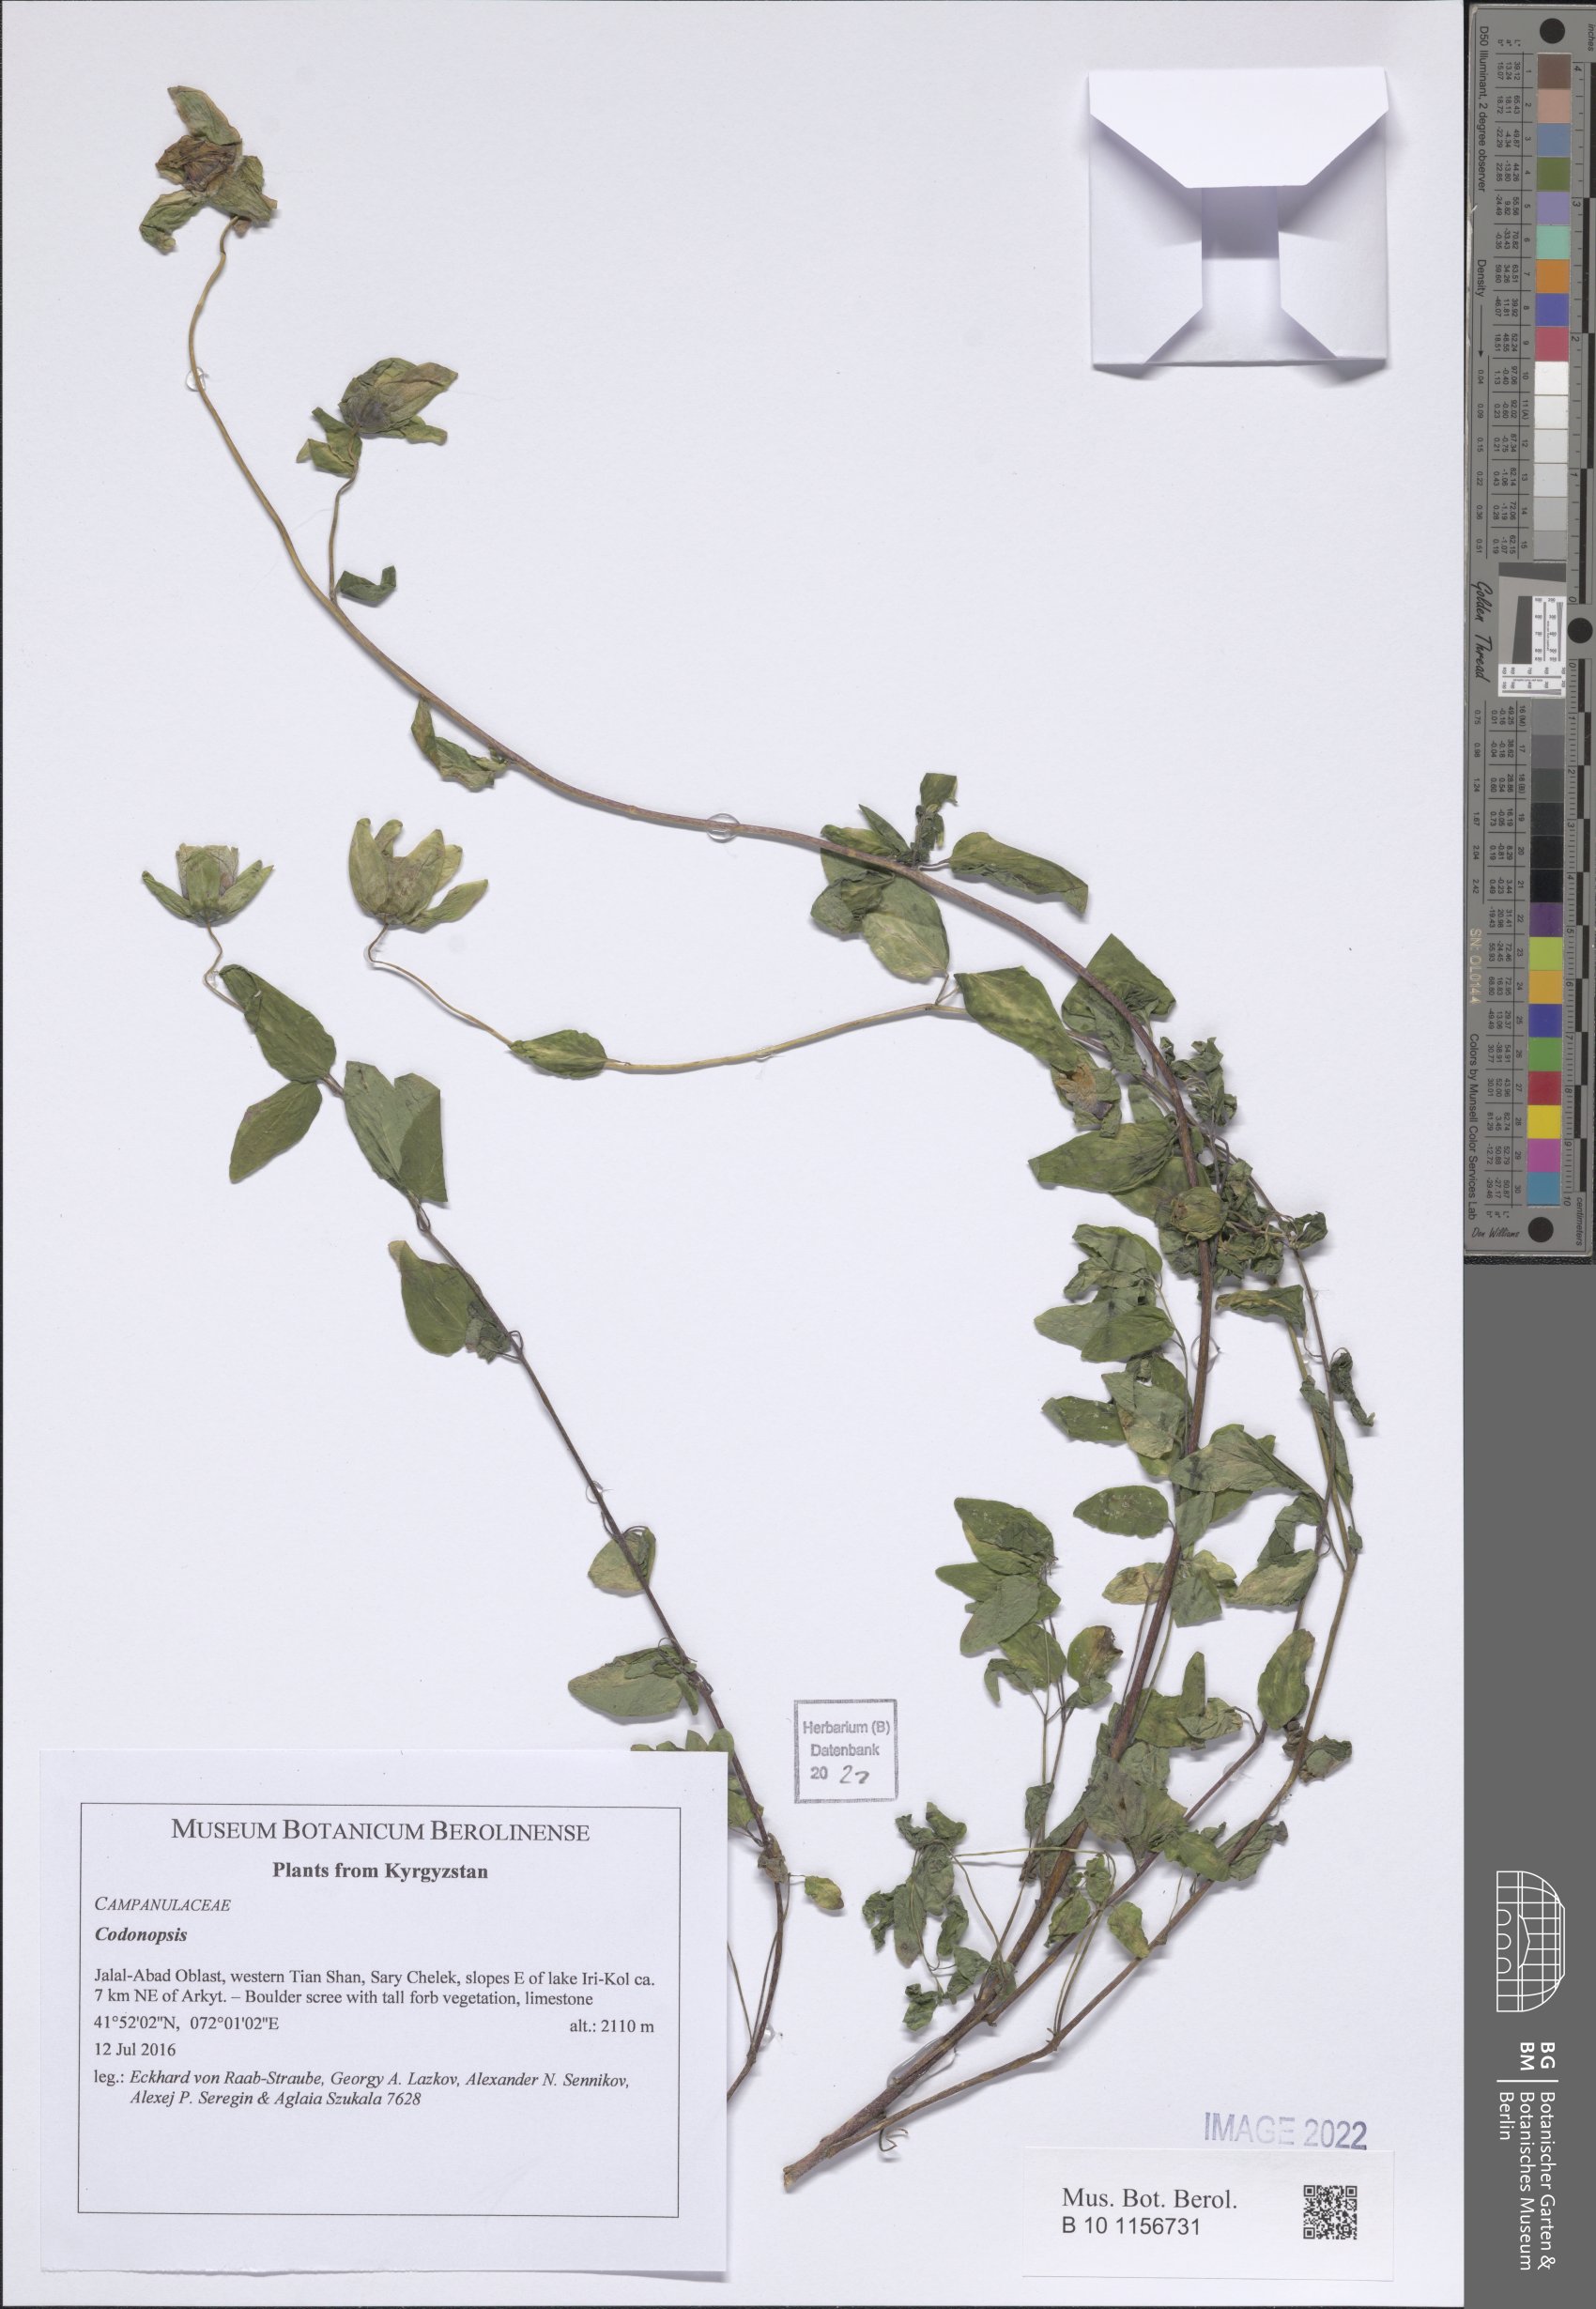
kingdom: Plantae
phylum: Tracheophyta
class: Magnoliopsida
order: Asterales
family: Campanulaceae
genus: Codonopsis
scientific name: Codonopsis
